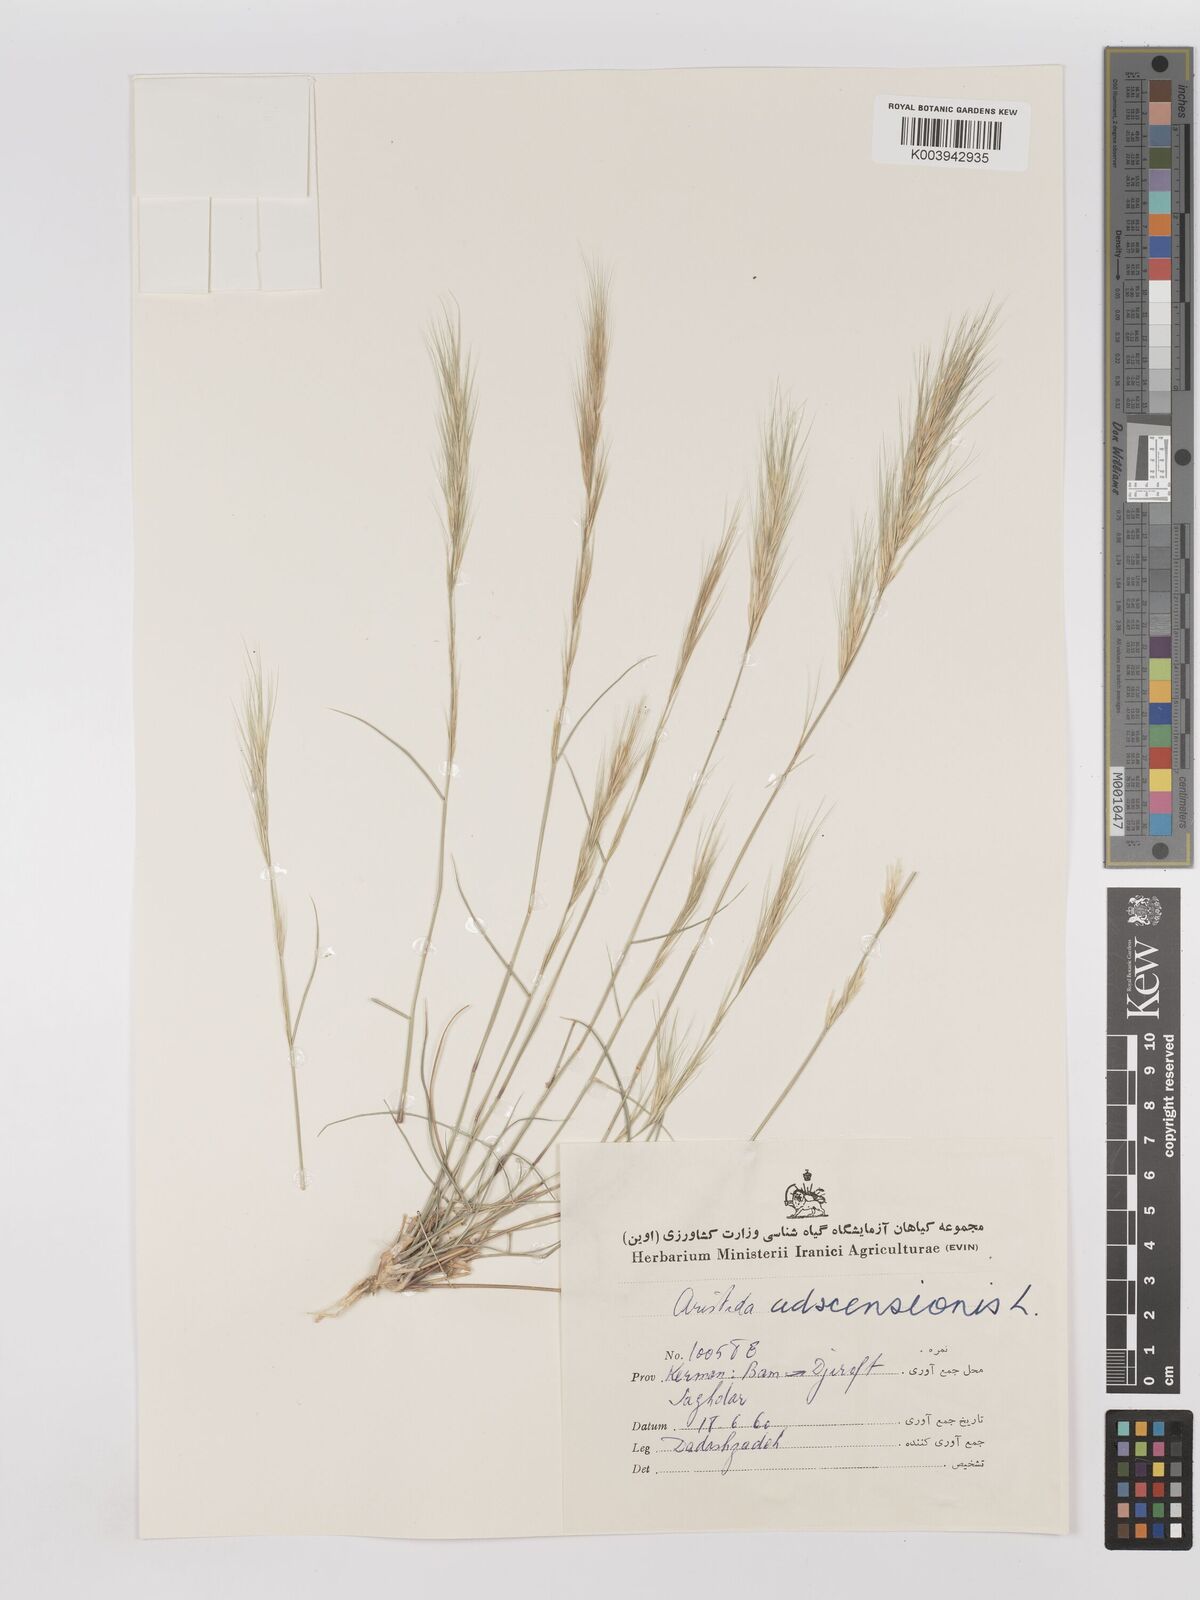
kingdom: Plantae
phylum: Tracheophyta
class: Liliopsida
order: Poales
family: Poaceae
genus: Aristida
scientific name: Aristida adscensionis
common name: Sixweeks threeawn
